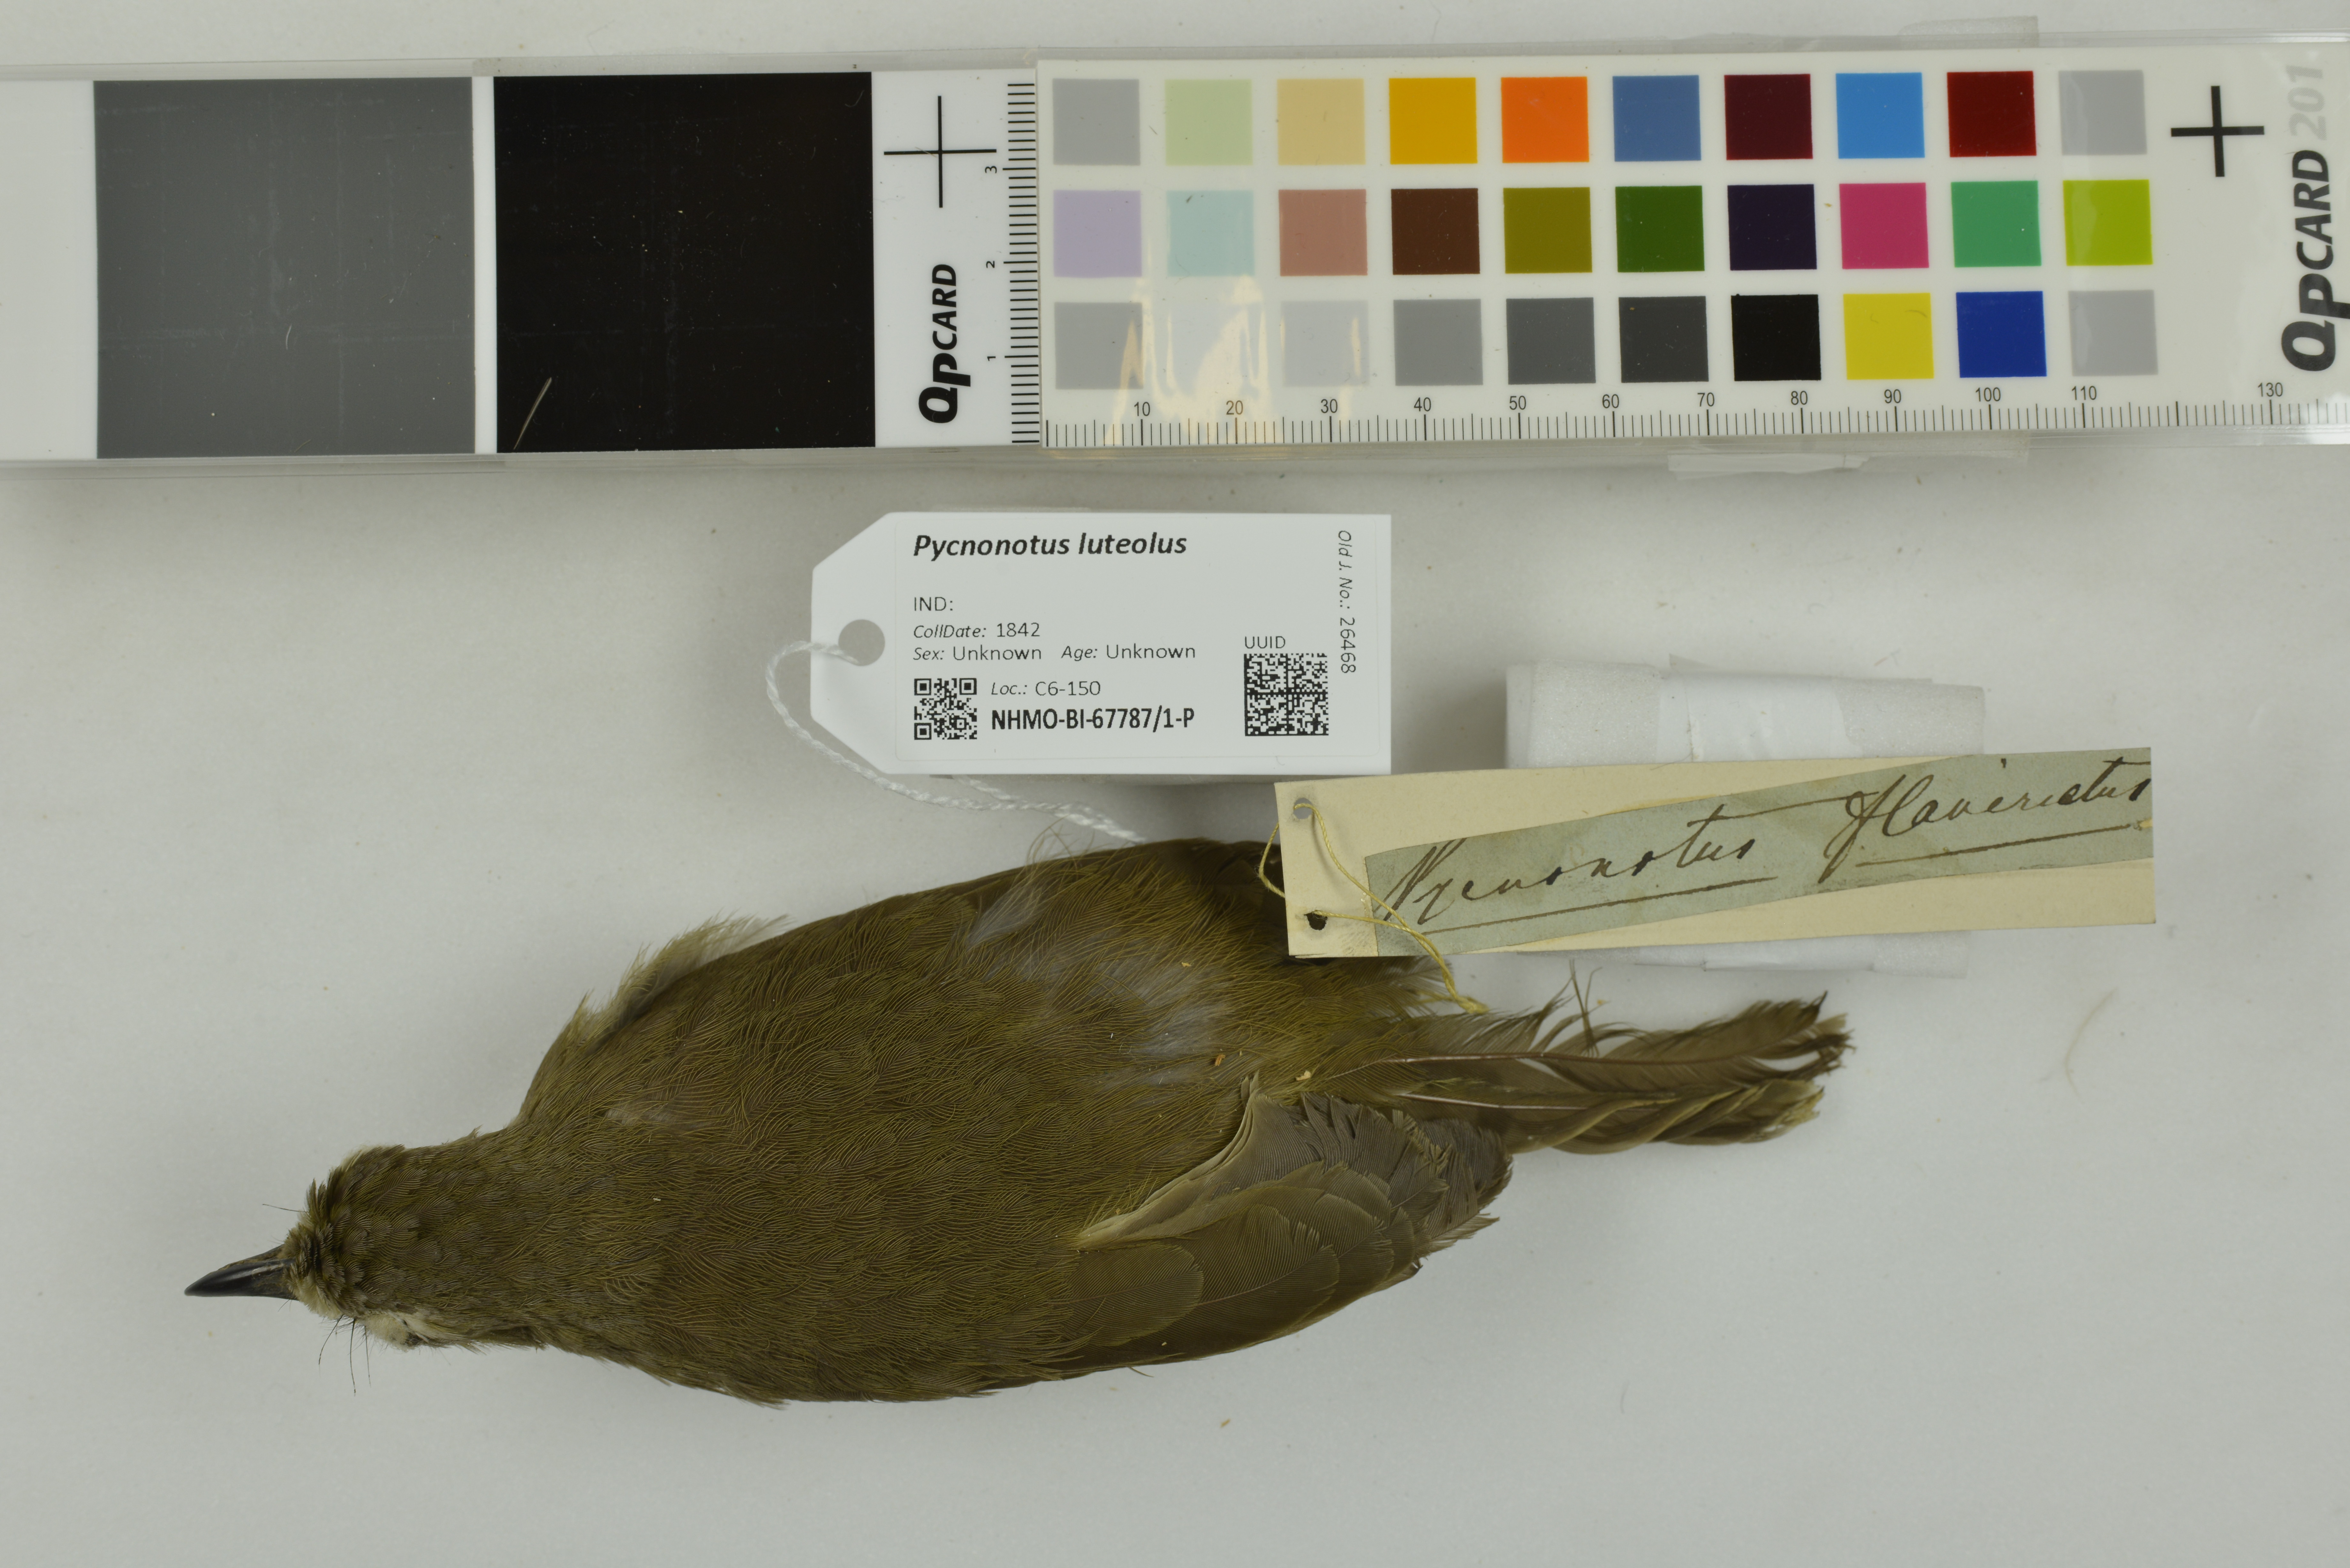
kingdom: Animalia
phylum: Chordata
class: Aves
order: Passeriformes
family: Pycnonotidae
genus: Pycnonotus
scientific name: Pycnonotus luteolus
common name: White-browed bulbul
